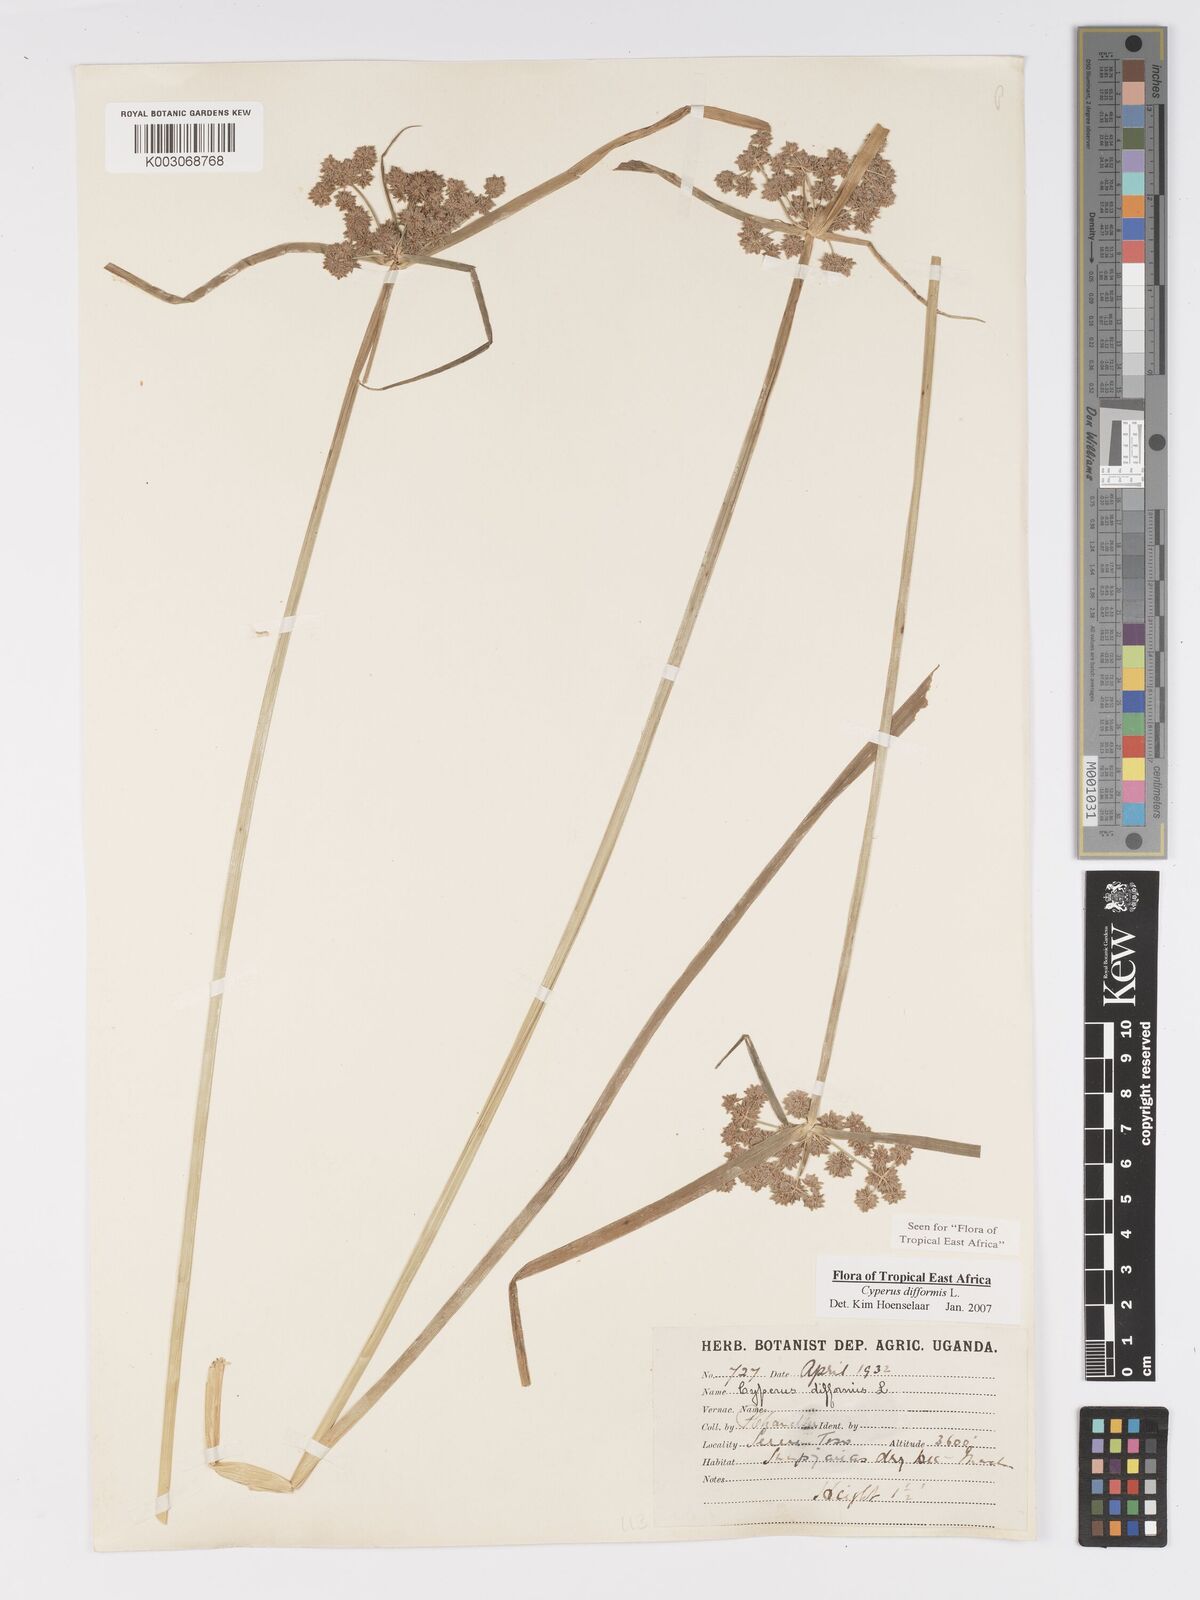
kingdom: Plantae
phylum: Tracheophyta
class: Liliopsida
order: Poales
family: Cyperaceae
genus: Cyperus
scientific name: Cyperus difformis
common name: Variable flatsedge
